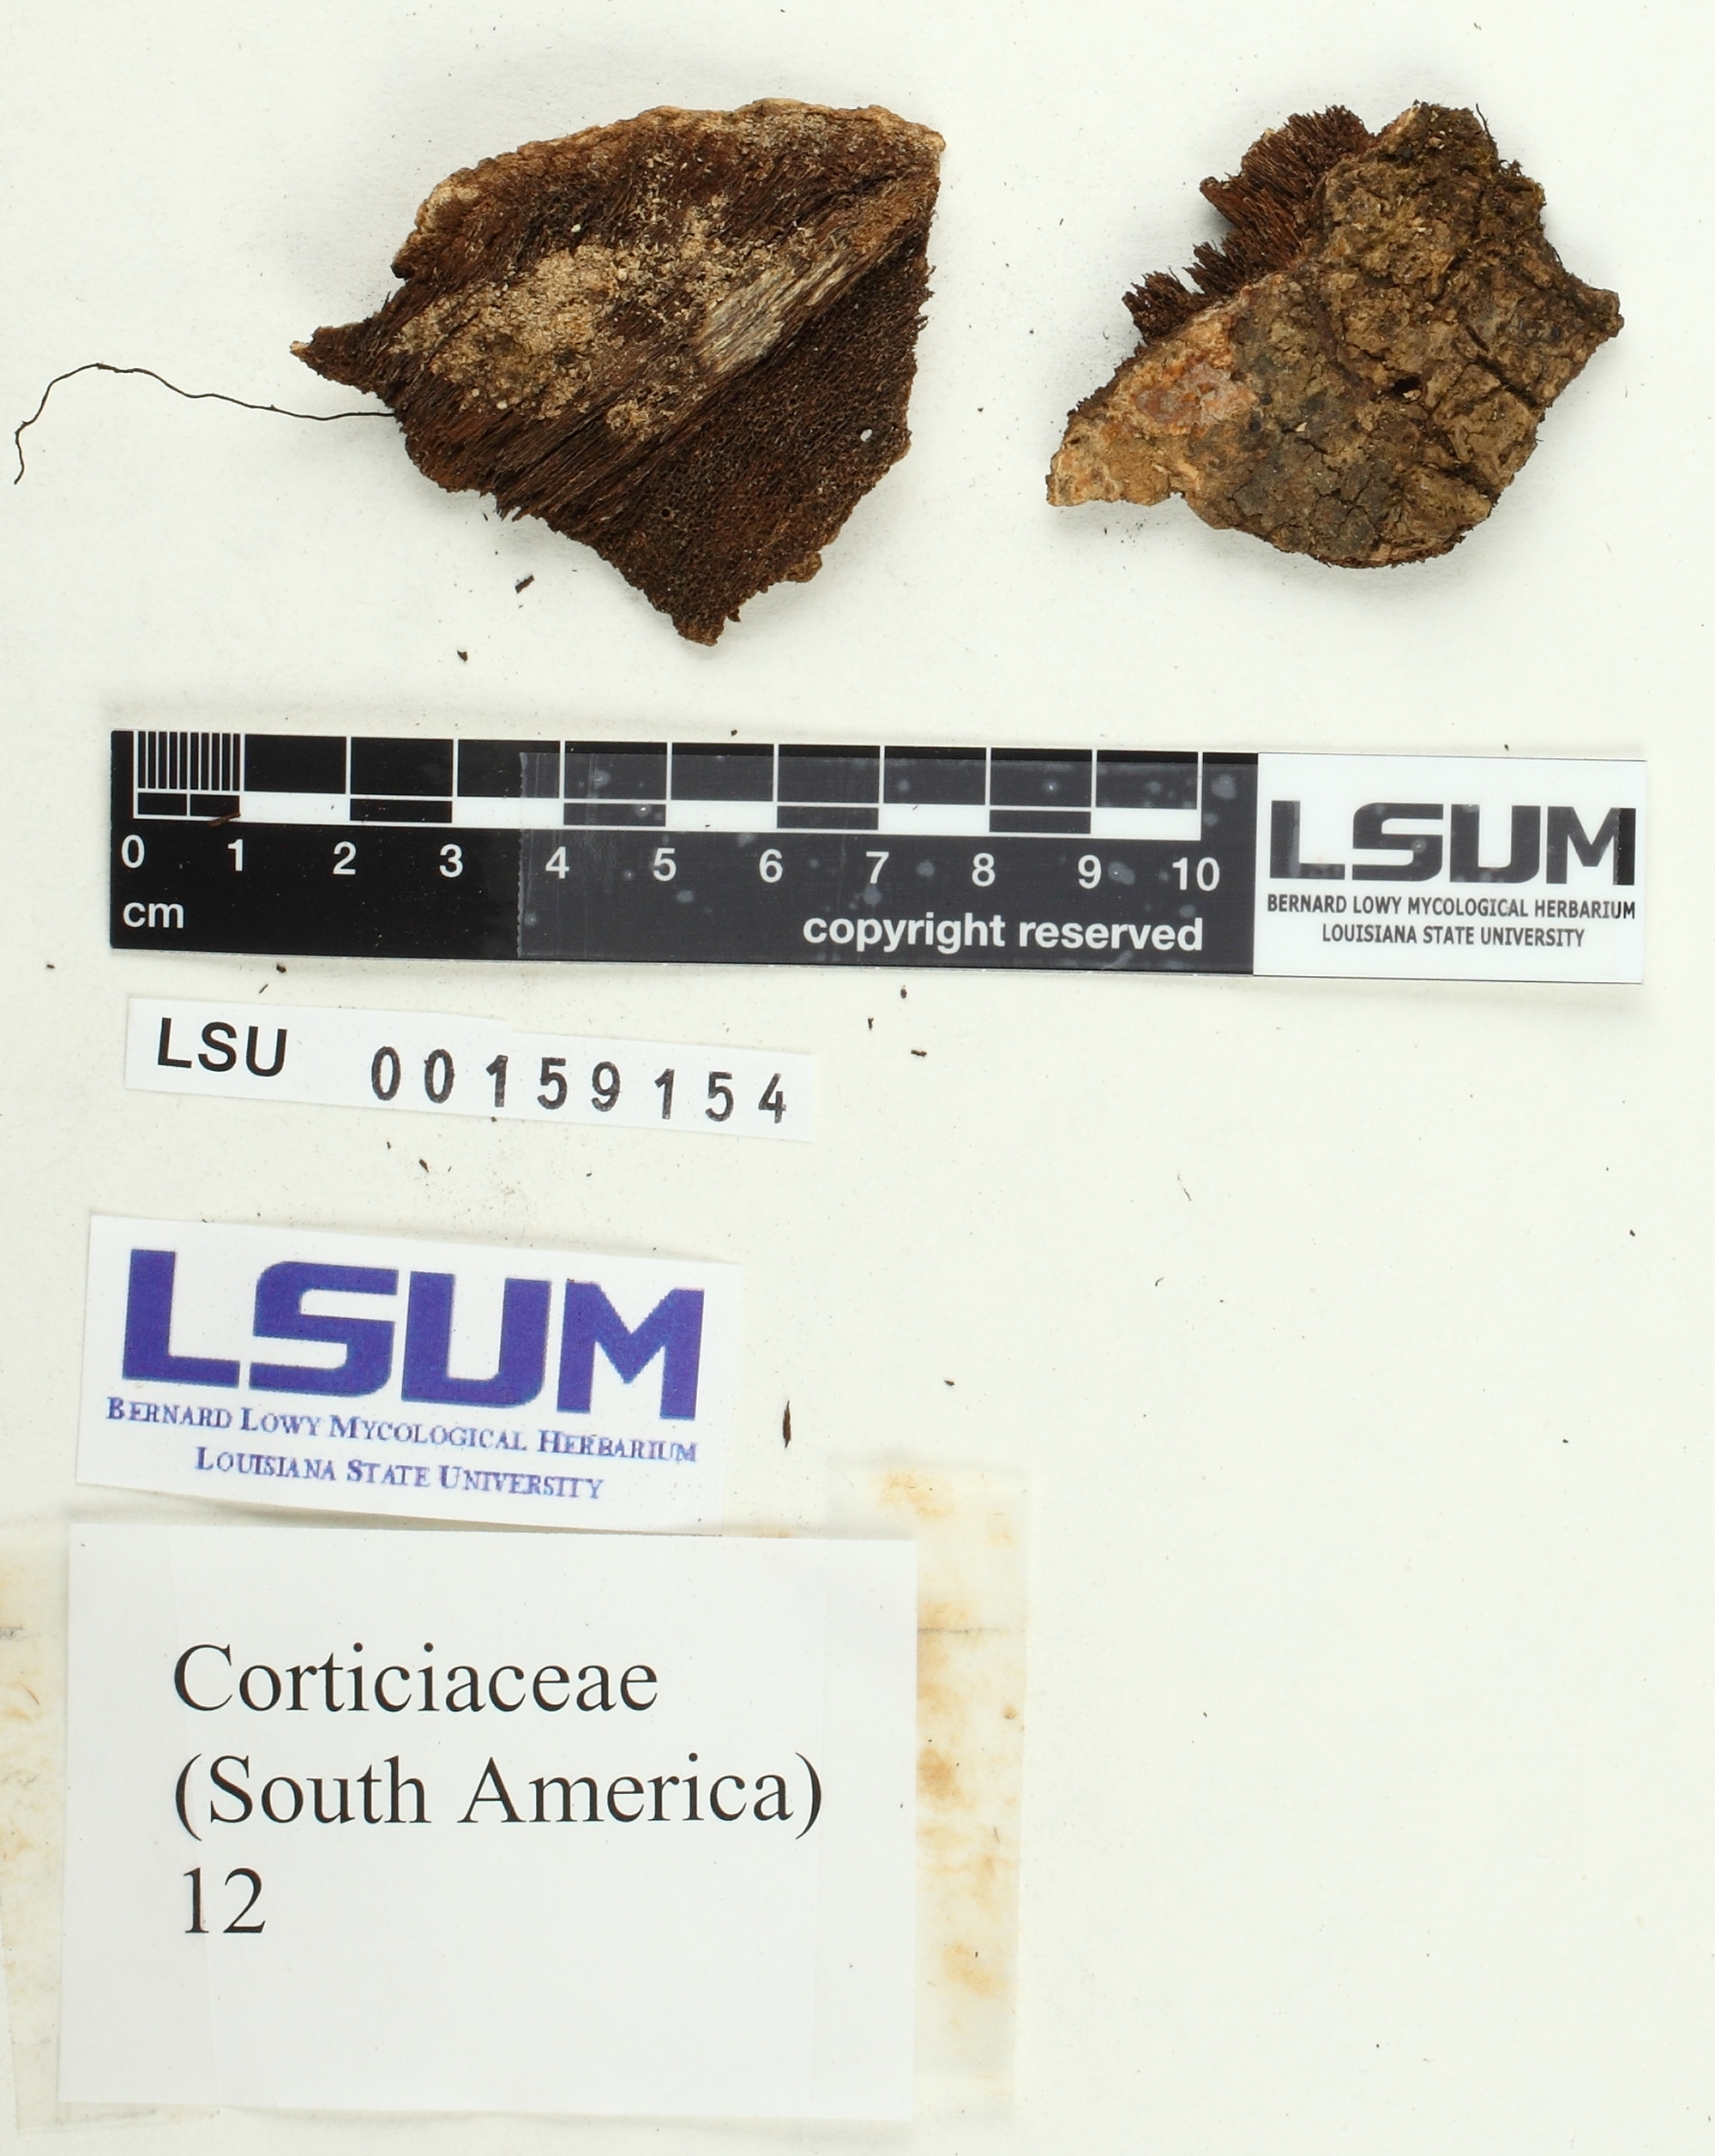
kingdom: Fungi
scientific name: Fungi
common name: Fungi
